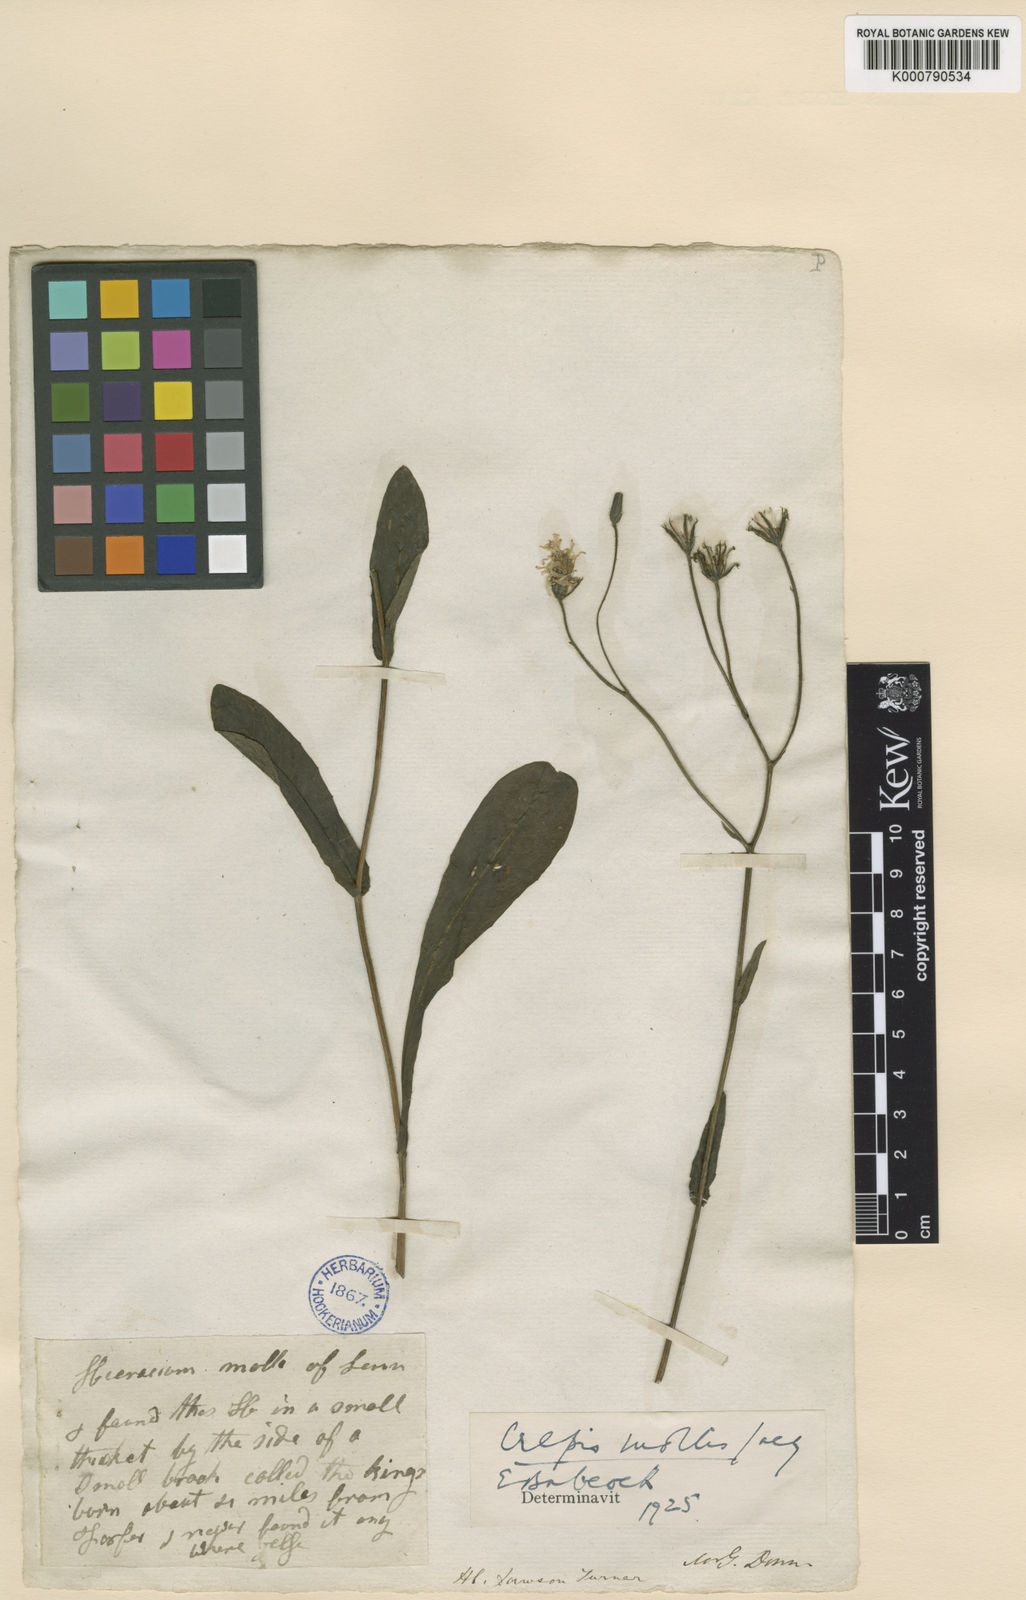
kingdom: Plantae
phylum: Tracheophyta
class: Magnoliopsida
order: Asterales
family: Asteraceae
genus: Crepis
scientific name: Crepis mollis
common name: Northern hawk's-beard
